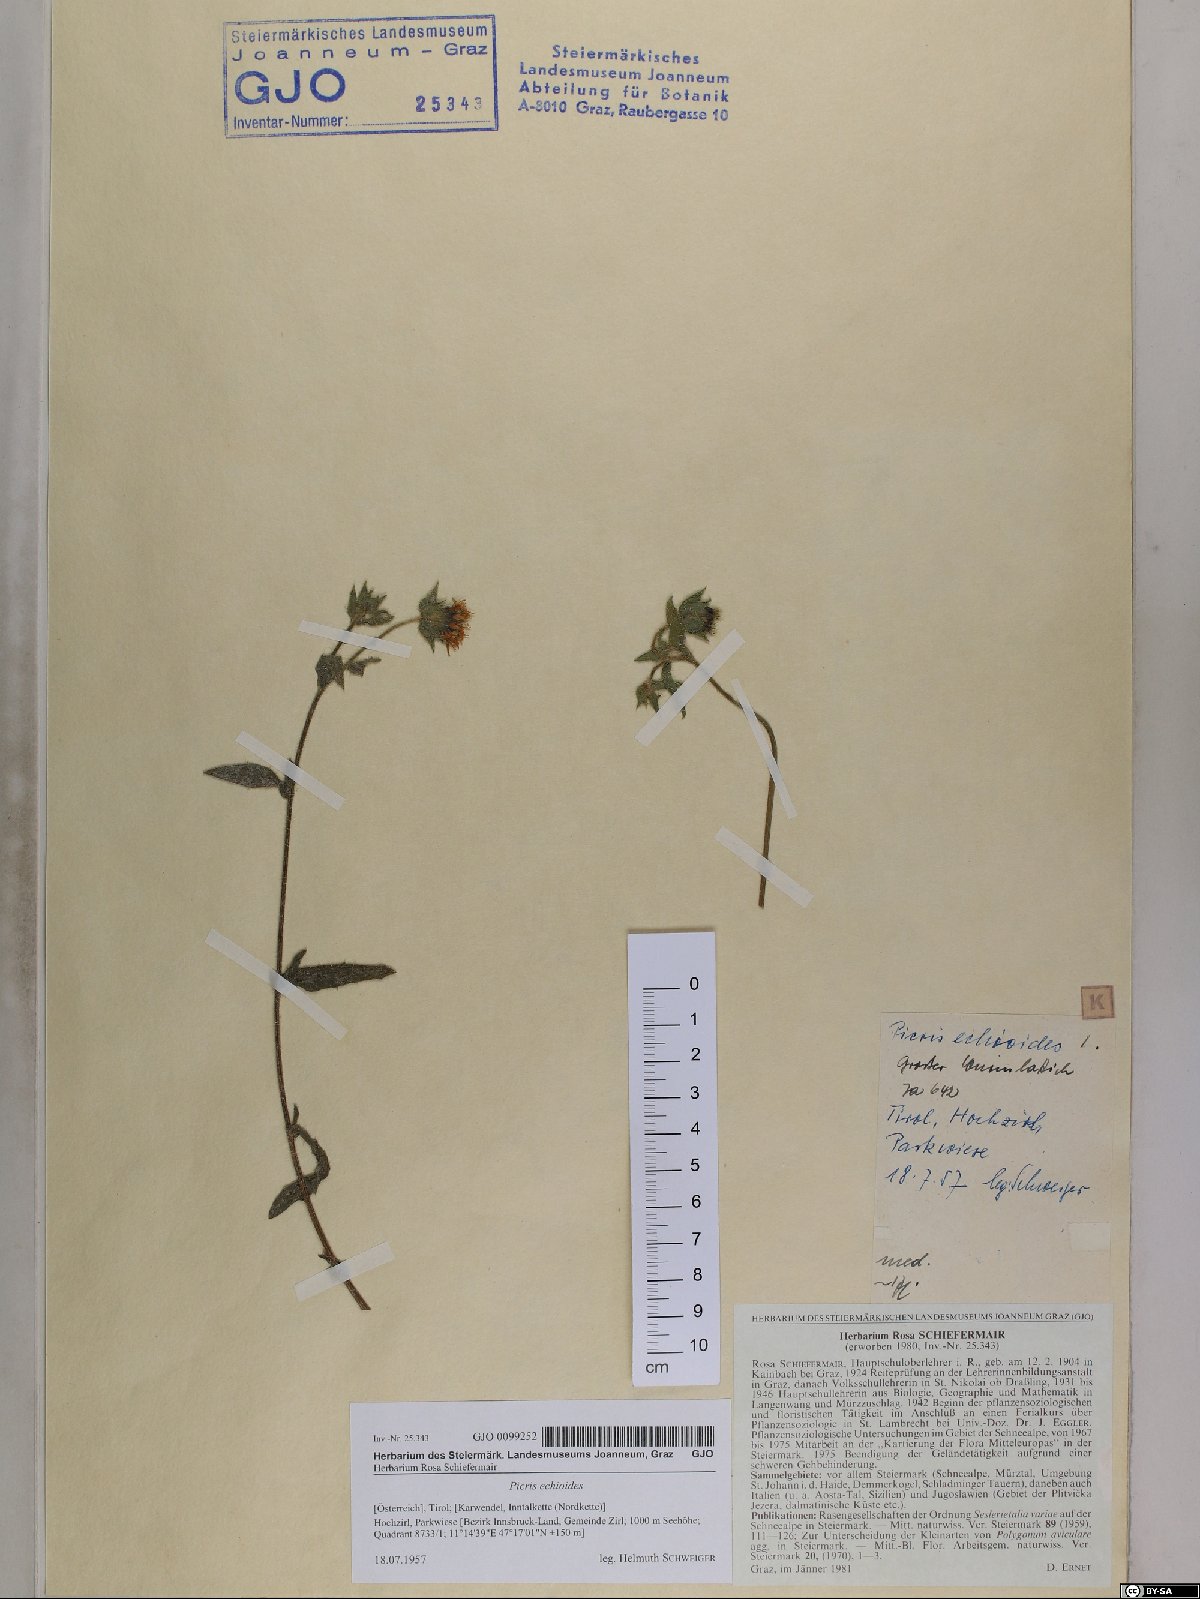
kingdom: Plantae
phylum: Tracheophyta
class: Magnoliopsida
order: Asterales
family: Asteraceae
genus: Helminthotheca
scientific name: Helminthotheca echioides
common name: Ox-tongue
